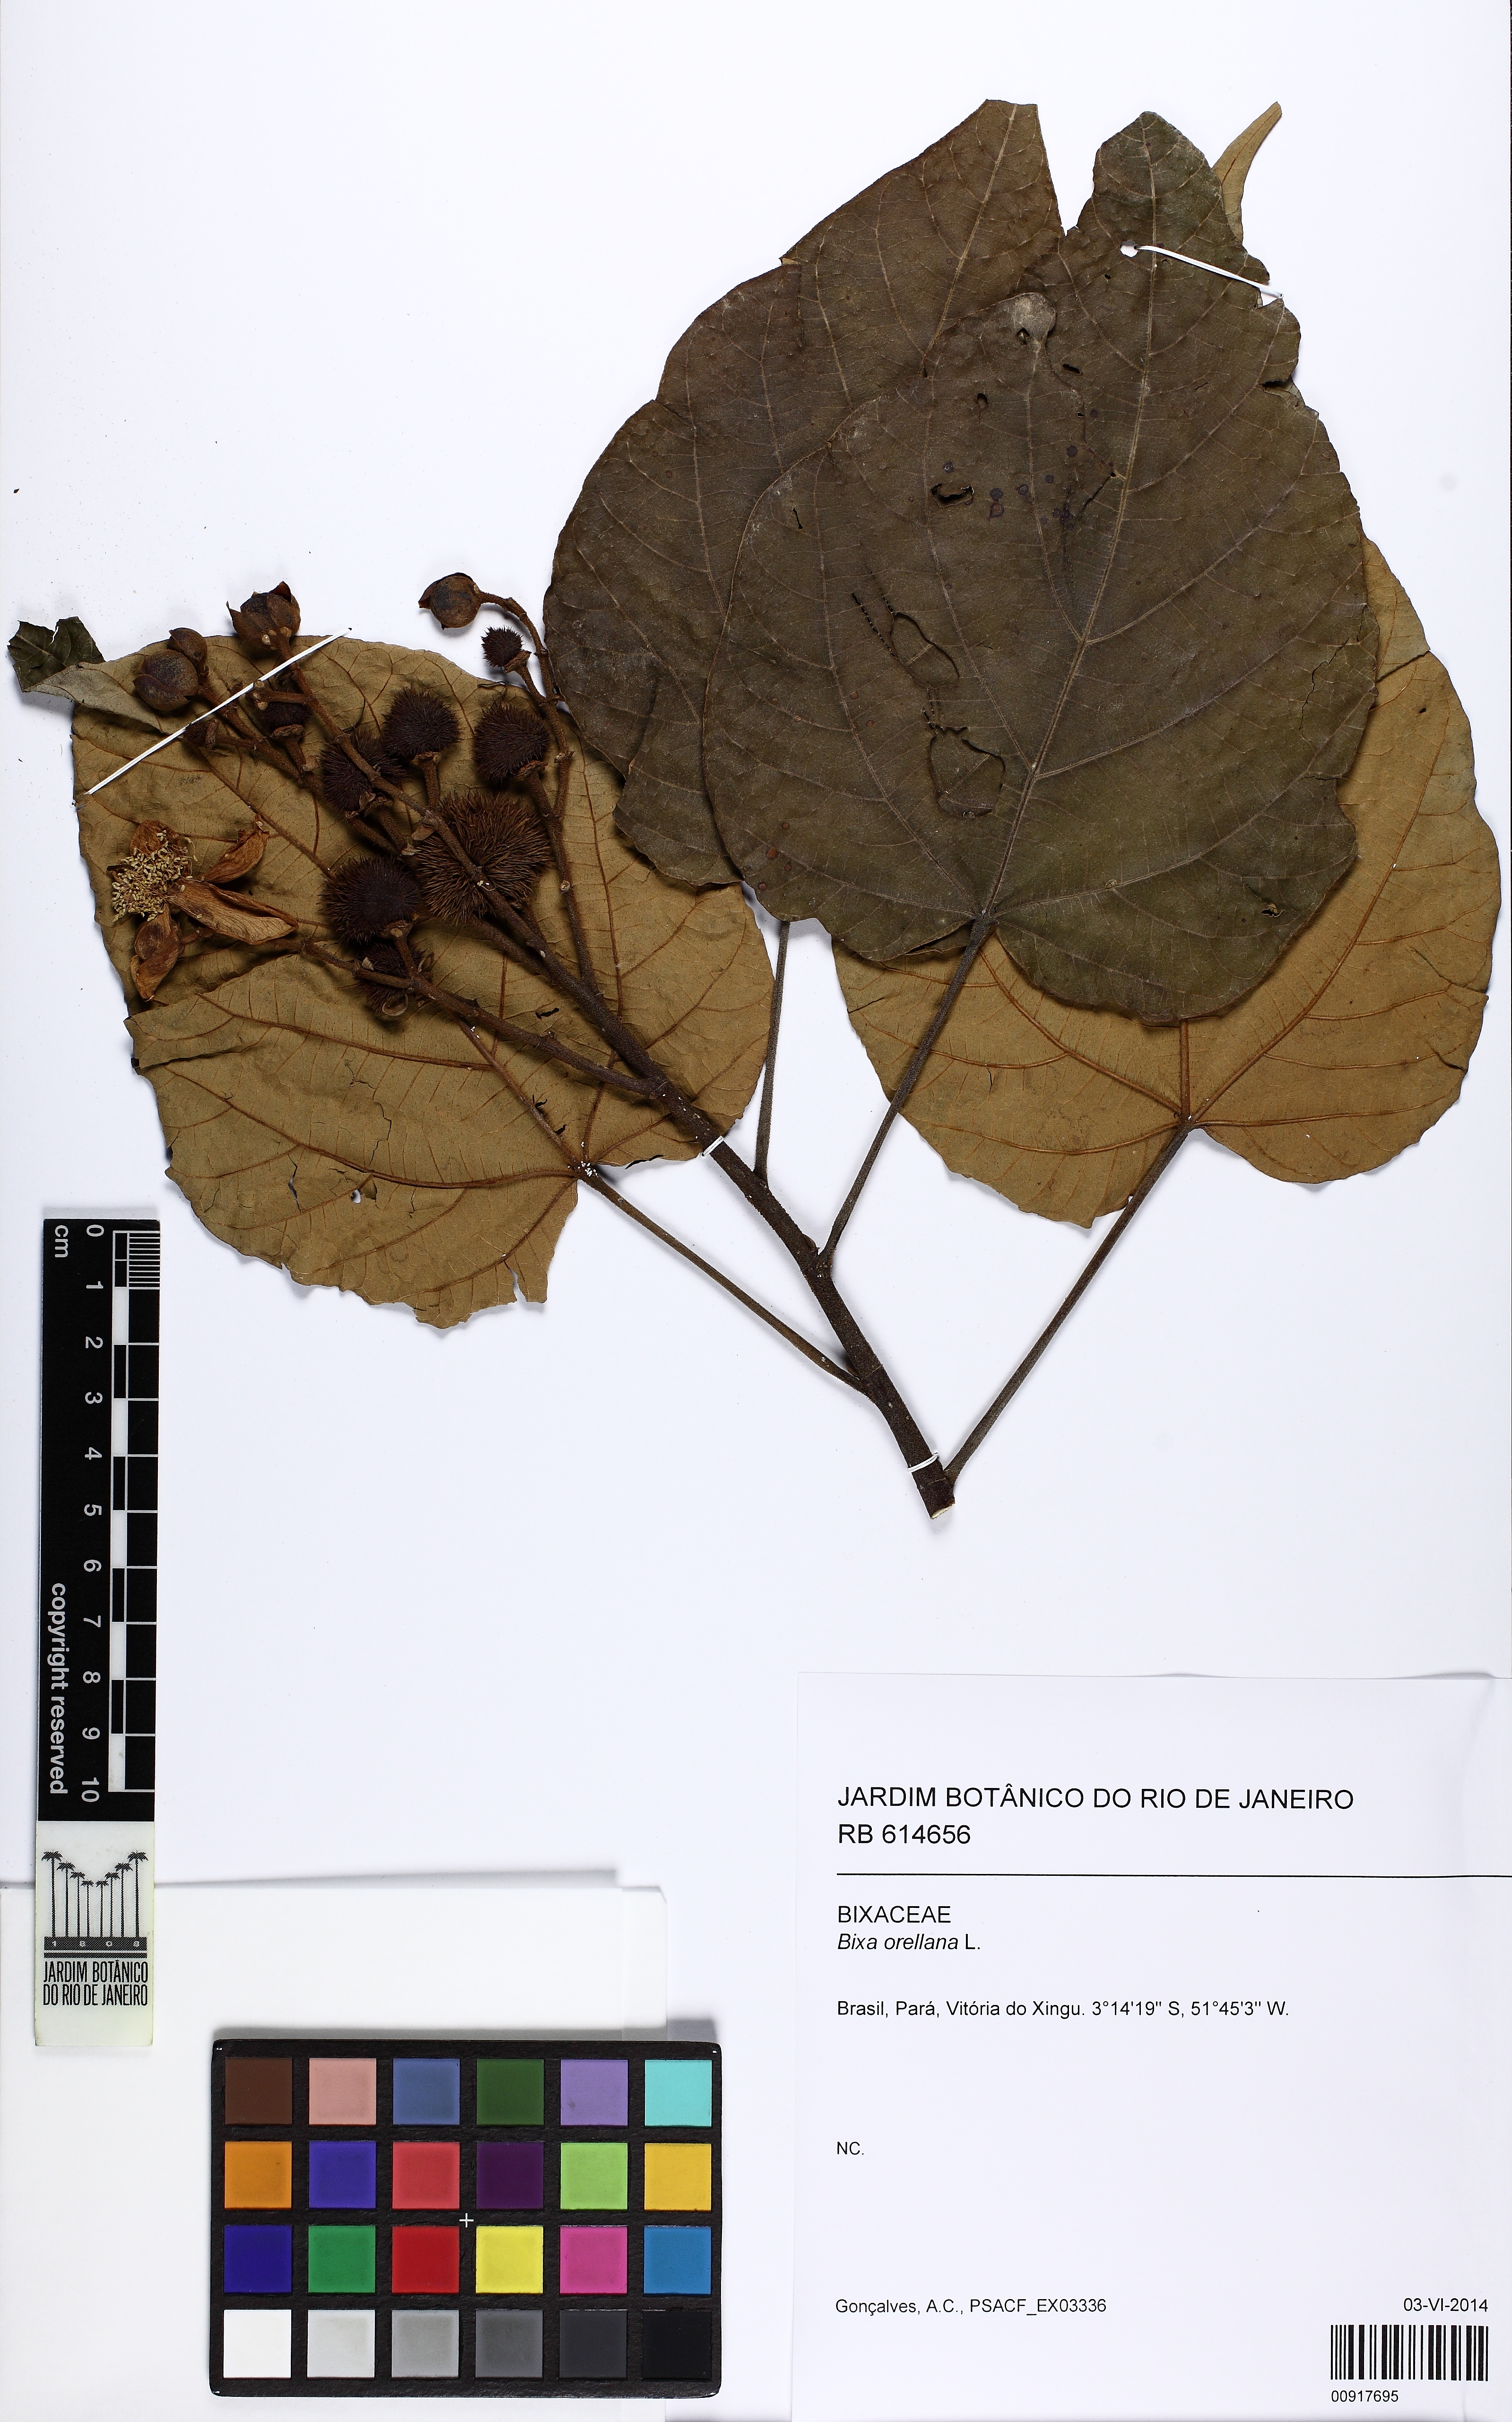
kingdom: Plantae
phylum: Tracheophyta
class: Magnoliopsida
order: Malvales
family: Bixaceae
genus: Bixa
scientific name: Bixa orellana
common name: Lipsticktree
